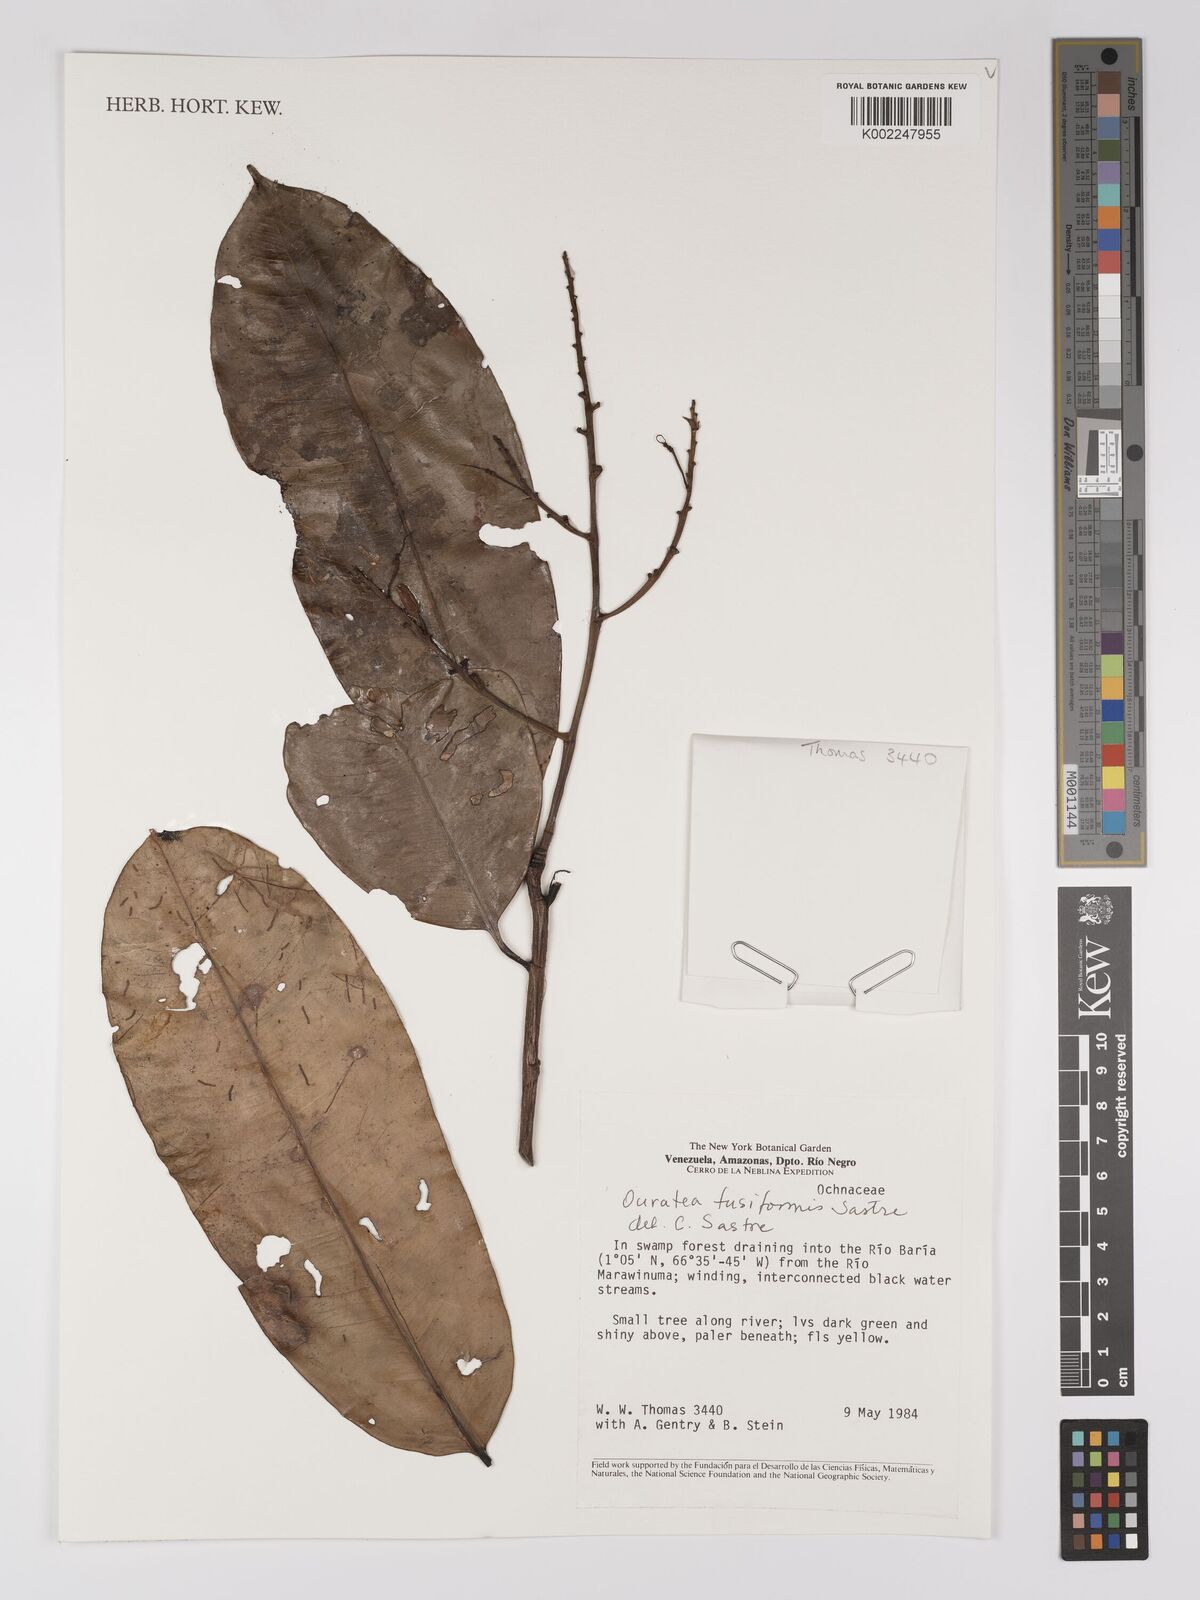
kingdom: Plantae
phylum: Tracheophyta
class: Magnoliopsida
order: Malpighiales
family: Ochnaceae
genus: Ouratea
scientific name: Ouratea fusiformis
